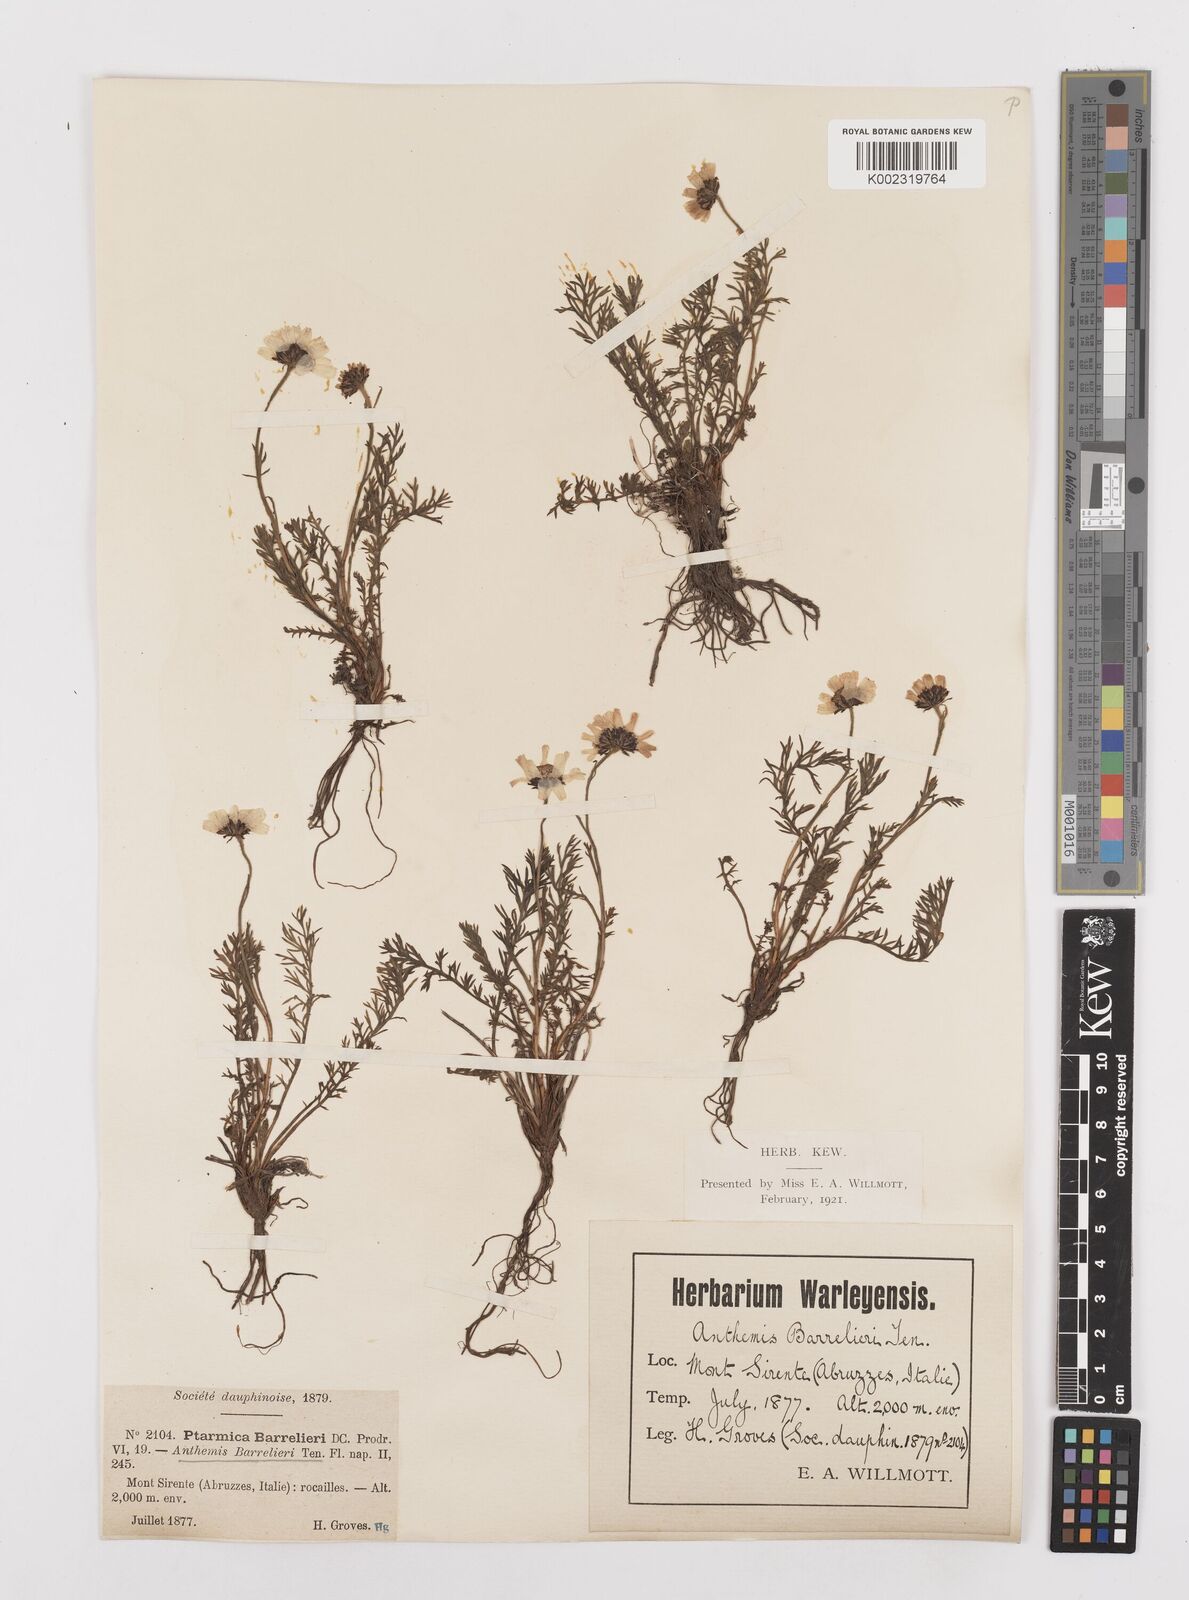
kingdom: Plantae
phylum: Tracheophyta
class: Magnoliopsida
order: Asterales
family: Asteraceae
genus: Achillea
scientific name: Achillea barrelieri
